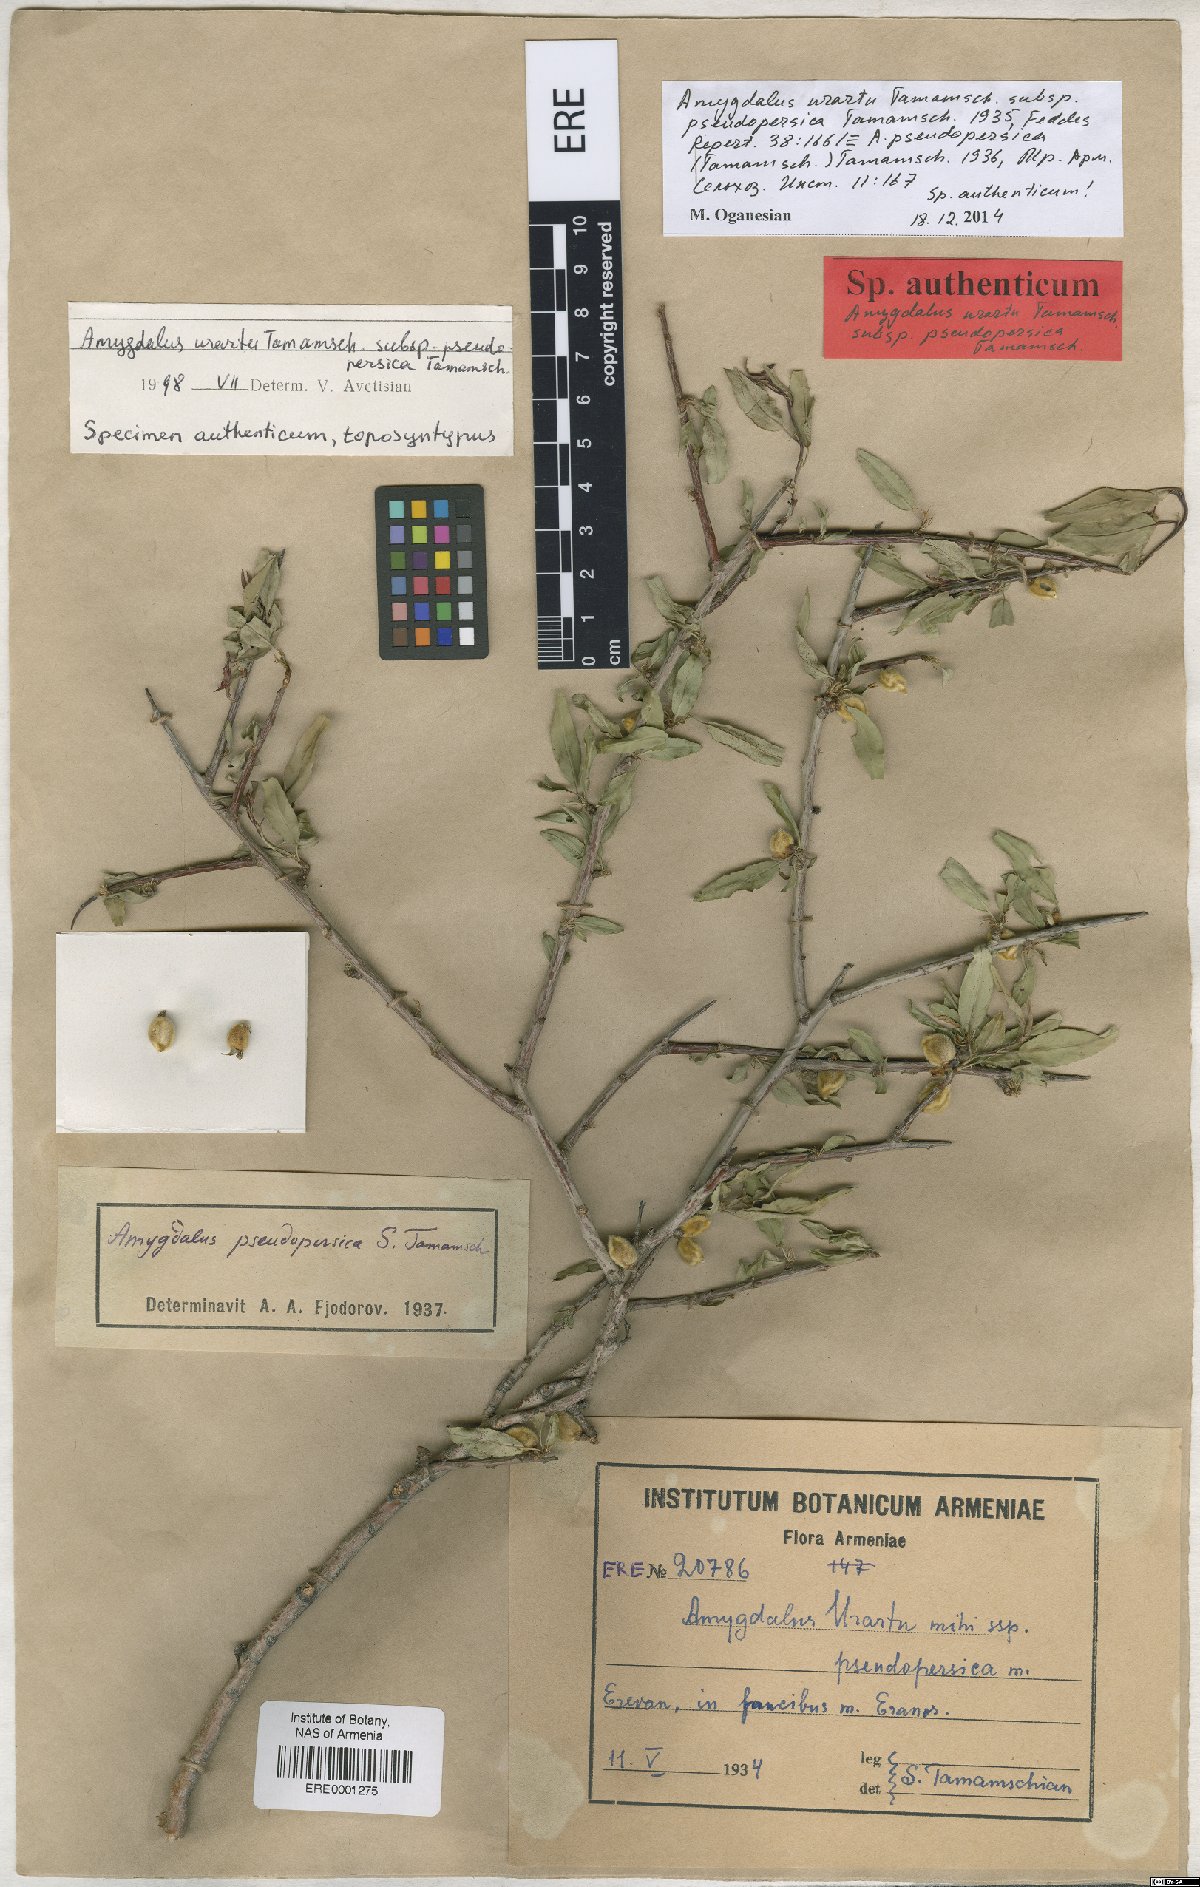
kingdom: Plantae
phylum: Tracheophyta
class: Magnoliopsida
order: Rosales
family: Rosaceae
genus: Prunus
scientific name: Prunus urartu
